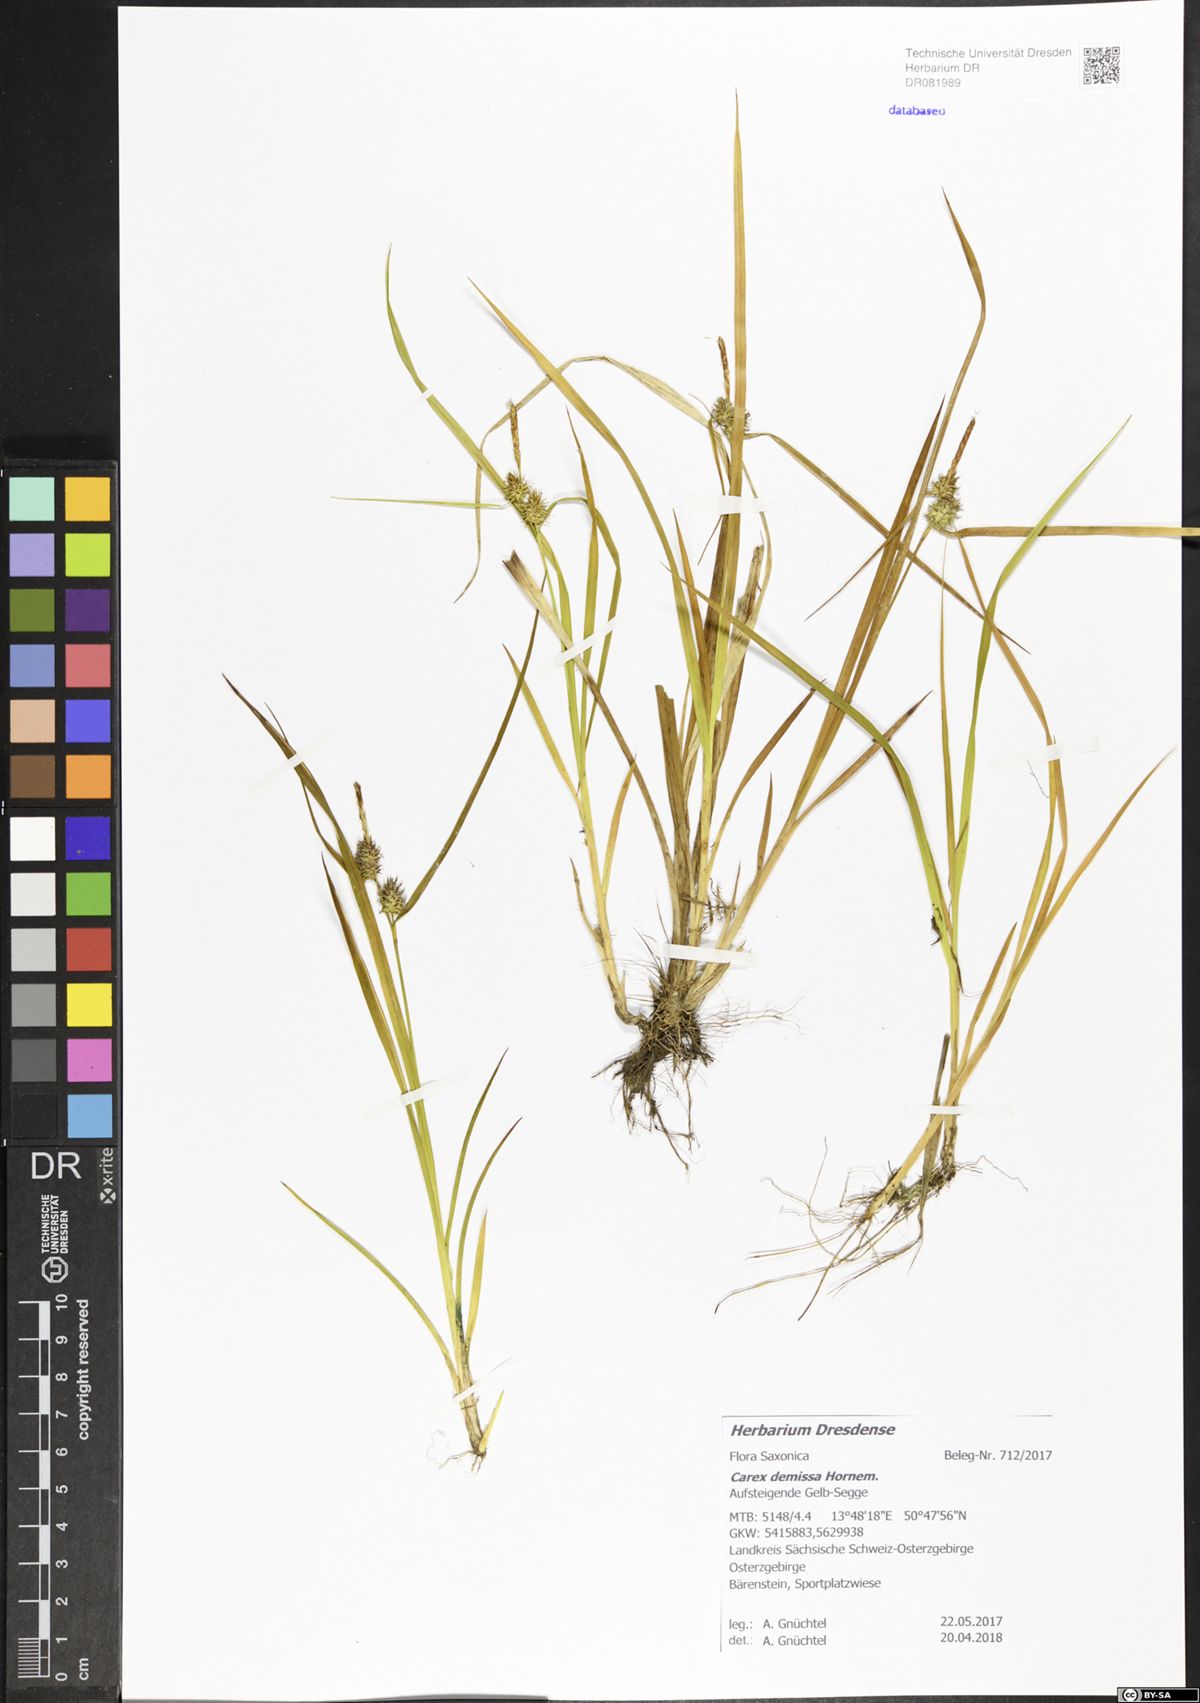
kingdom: Plantae
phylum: Tracheophyta
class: Liliopsida
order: Poales
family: Cyperaceae
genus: Carex
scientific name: Carex demissa
